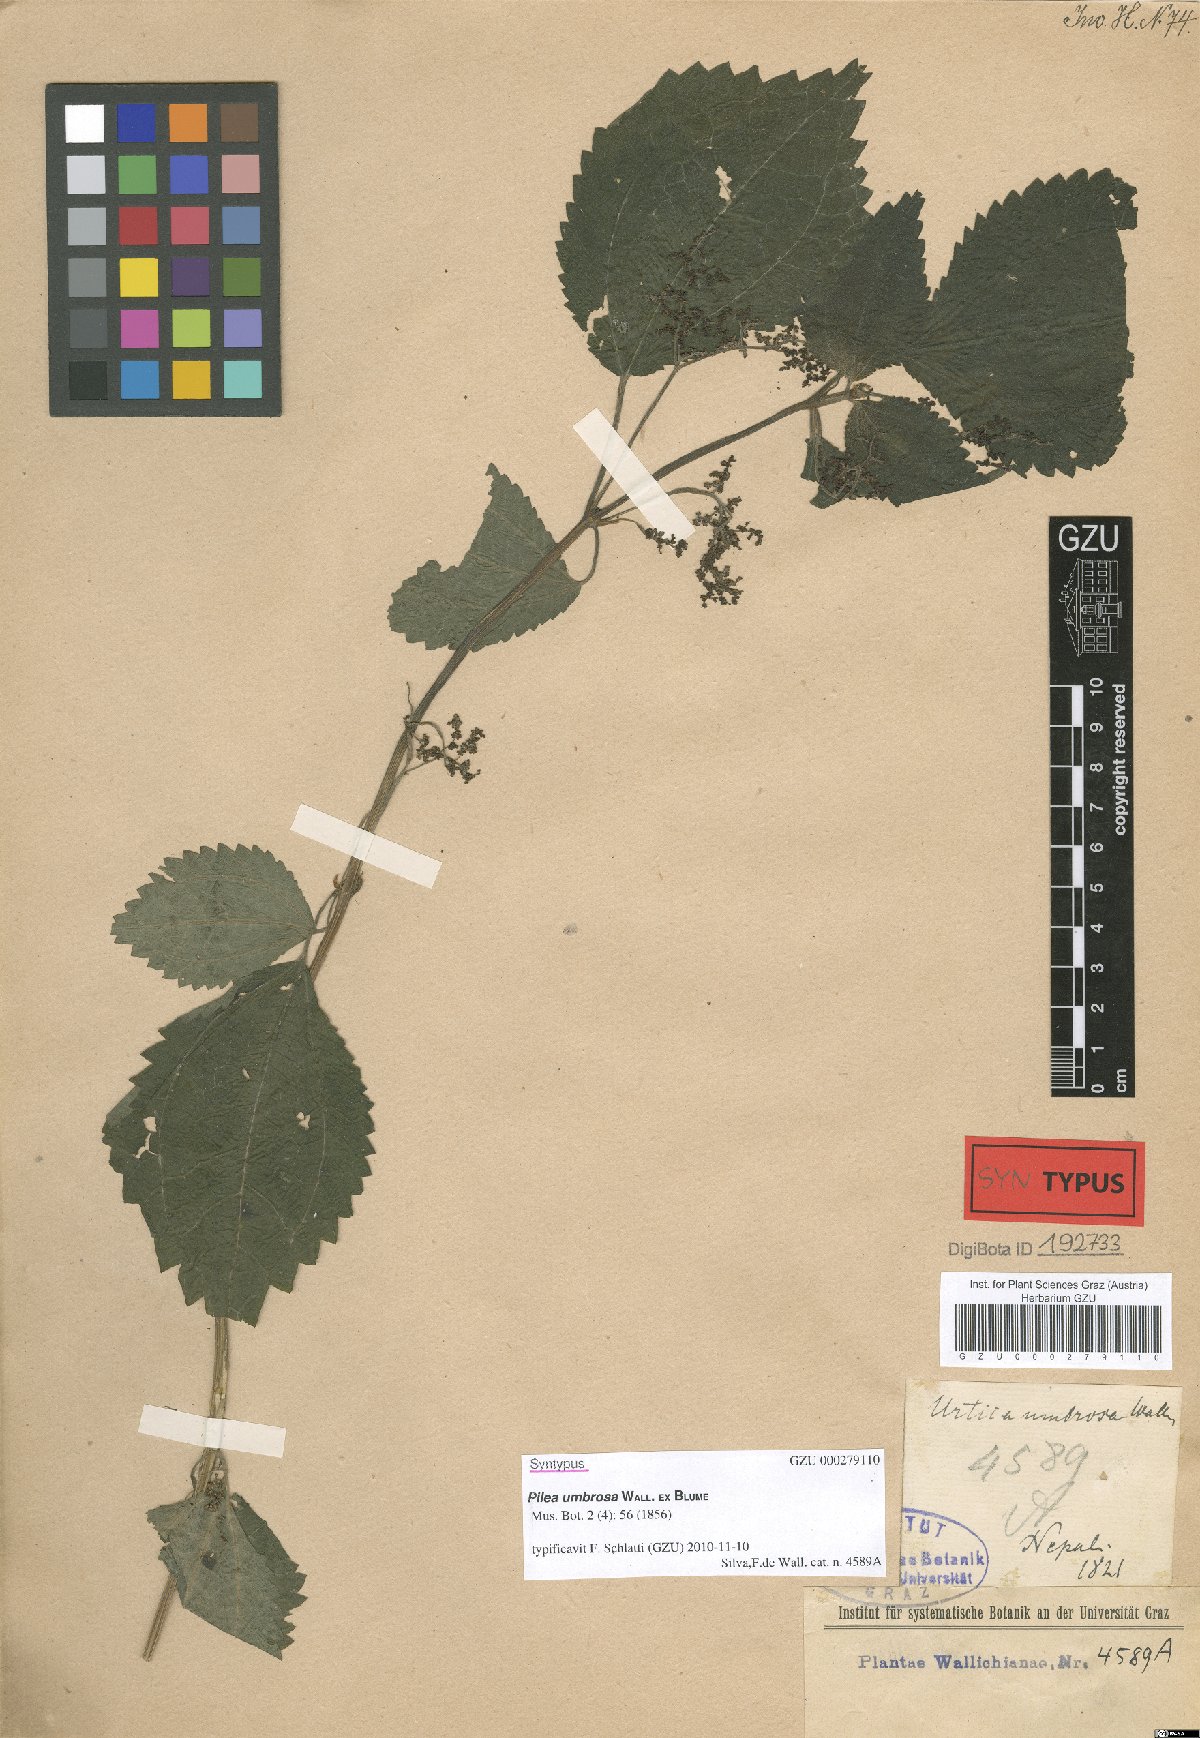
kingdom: Plantae
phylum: Tracheophyta
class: Magnoliopsida
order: Rosales
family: Urticaceae
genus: Pilea
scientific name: Pilea umbrosa
